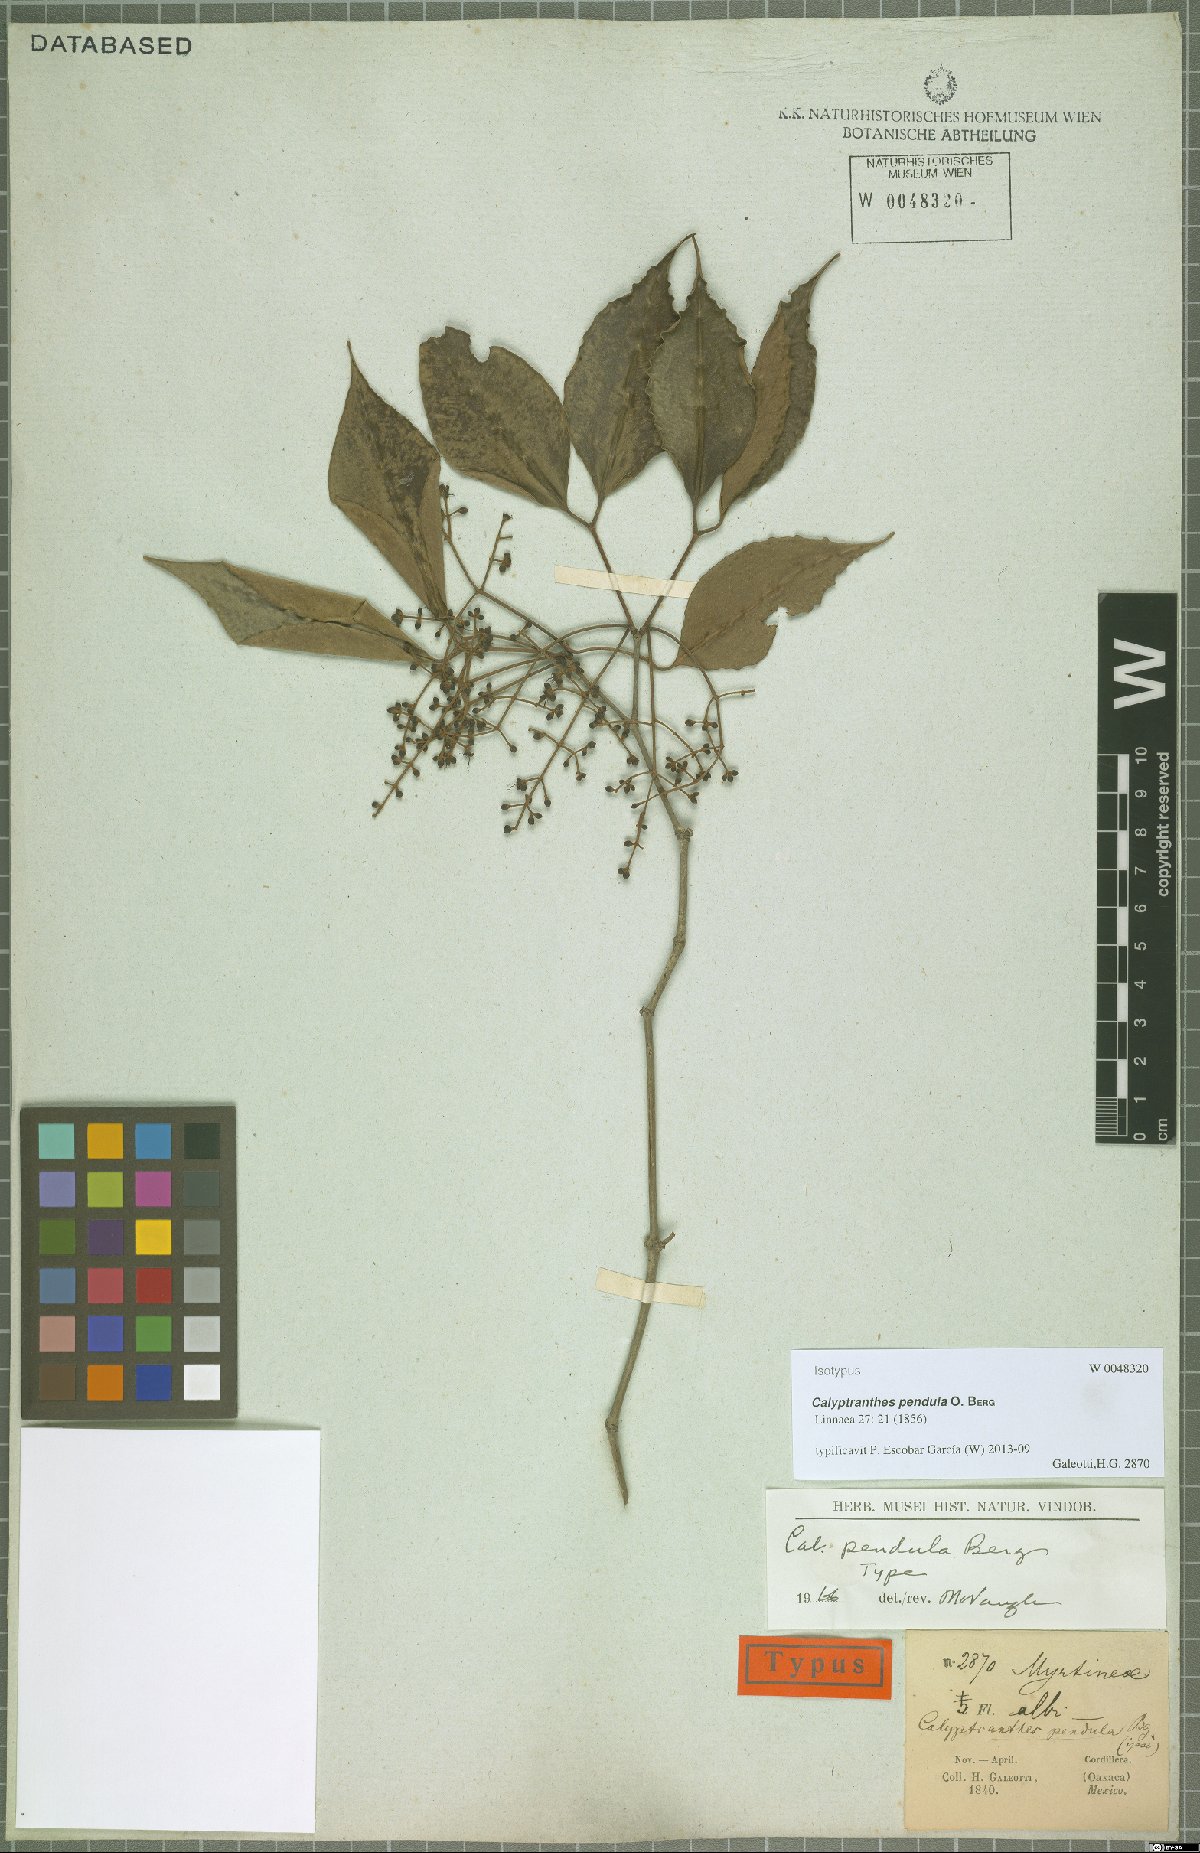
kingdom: Plantae
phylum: Tracheophyta
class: Magnoliopsida
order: Myrtales
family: Myrtaceae
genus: Myrcia
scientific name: Myrcia pendens
